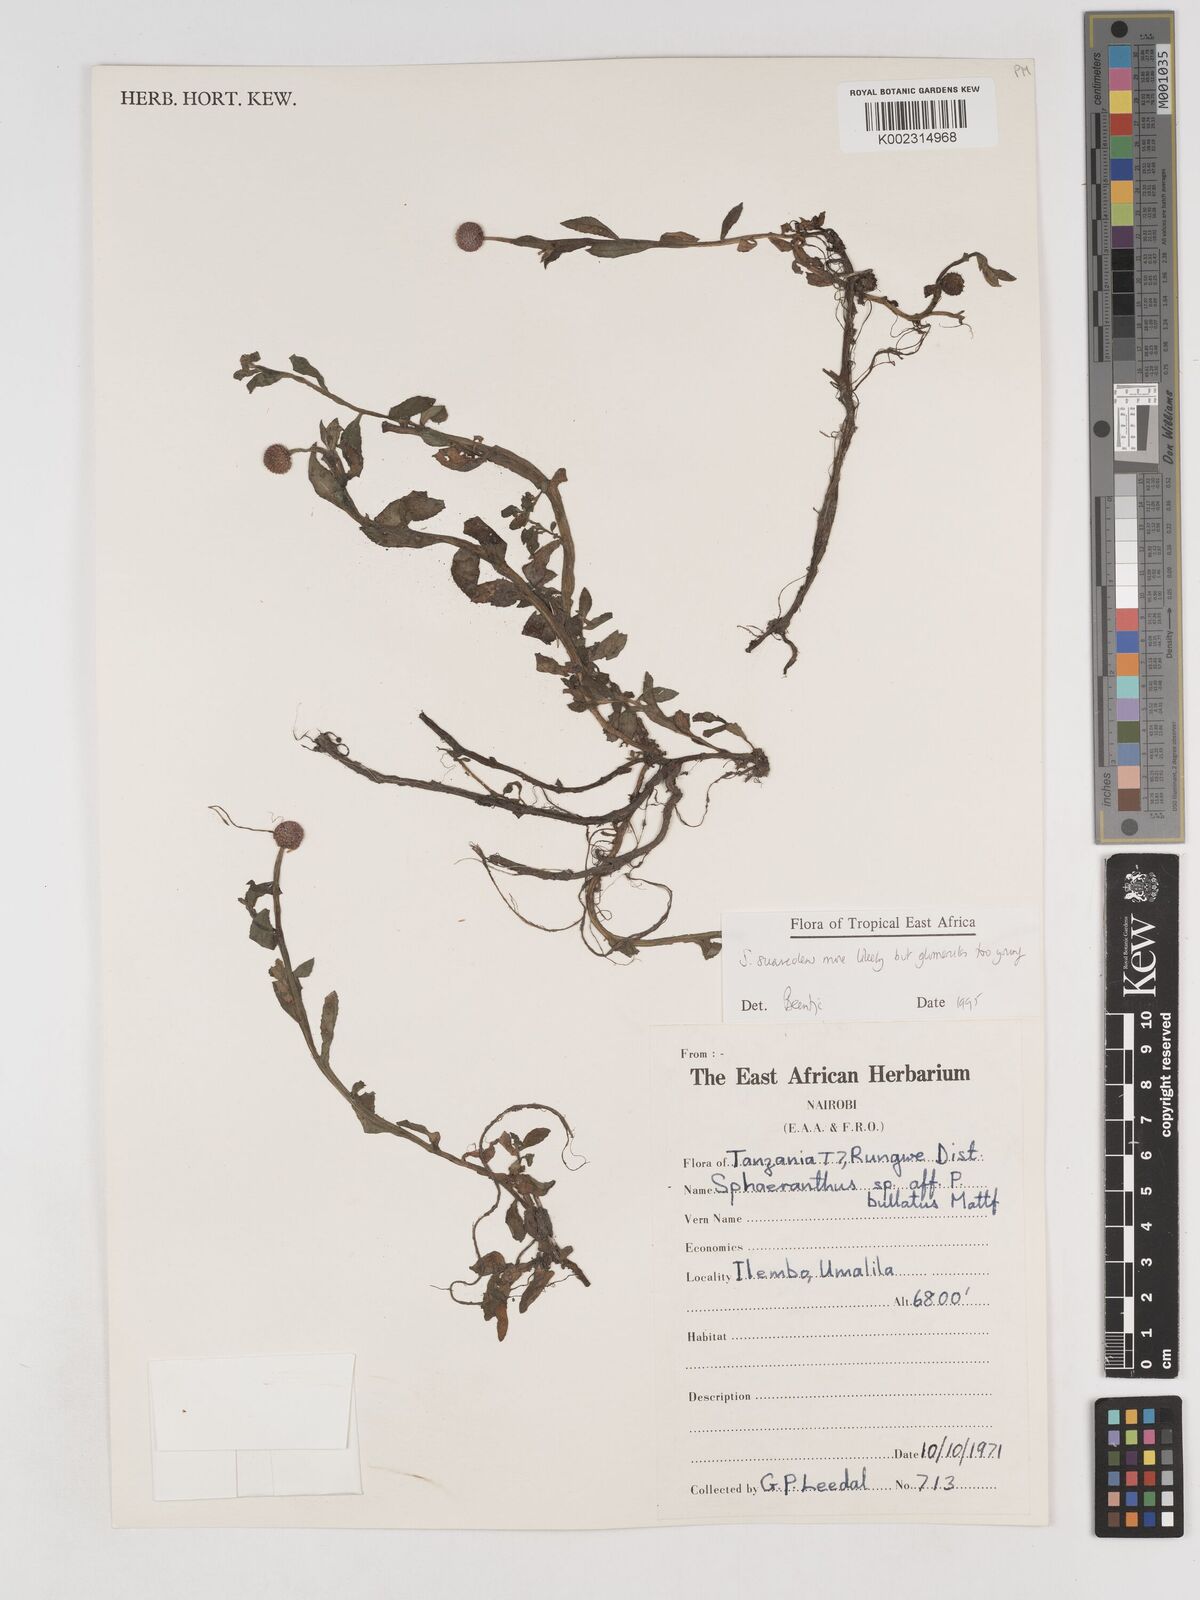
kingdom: Plantae
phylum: Tracheophyta
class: Magnoliopsida
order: Asterales
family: Asteraceae
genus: Sphaeranthus
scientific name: Sphaeranthus suaveolens
